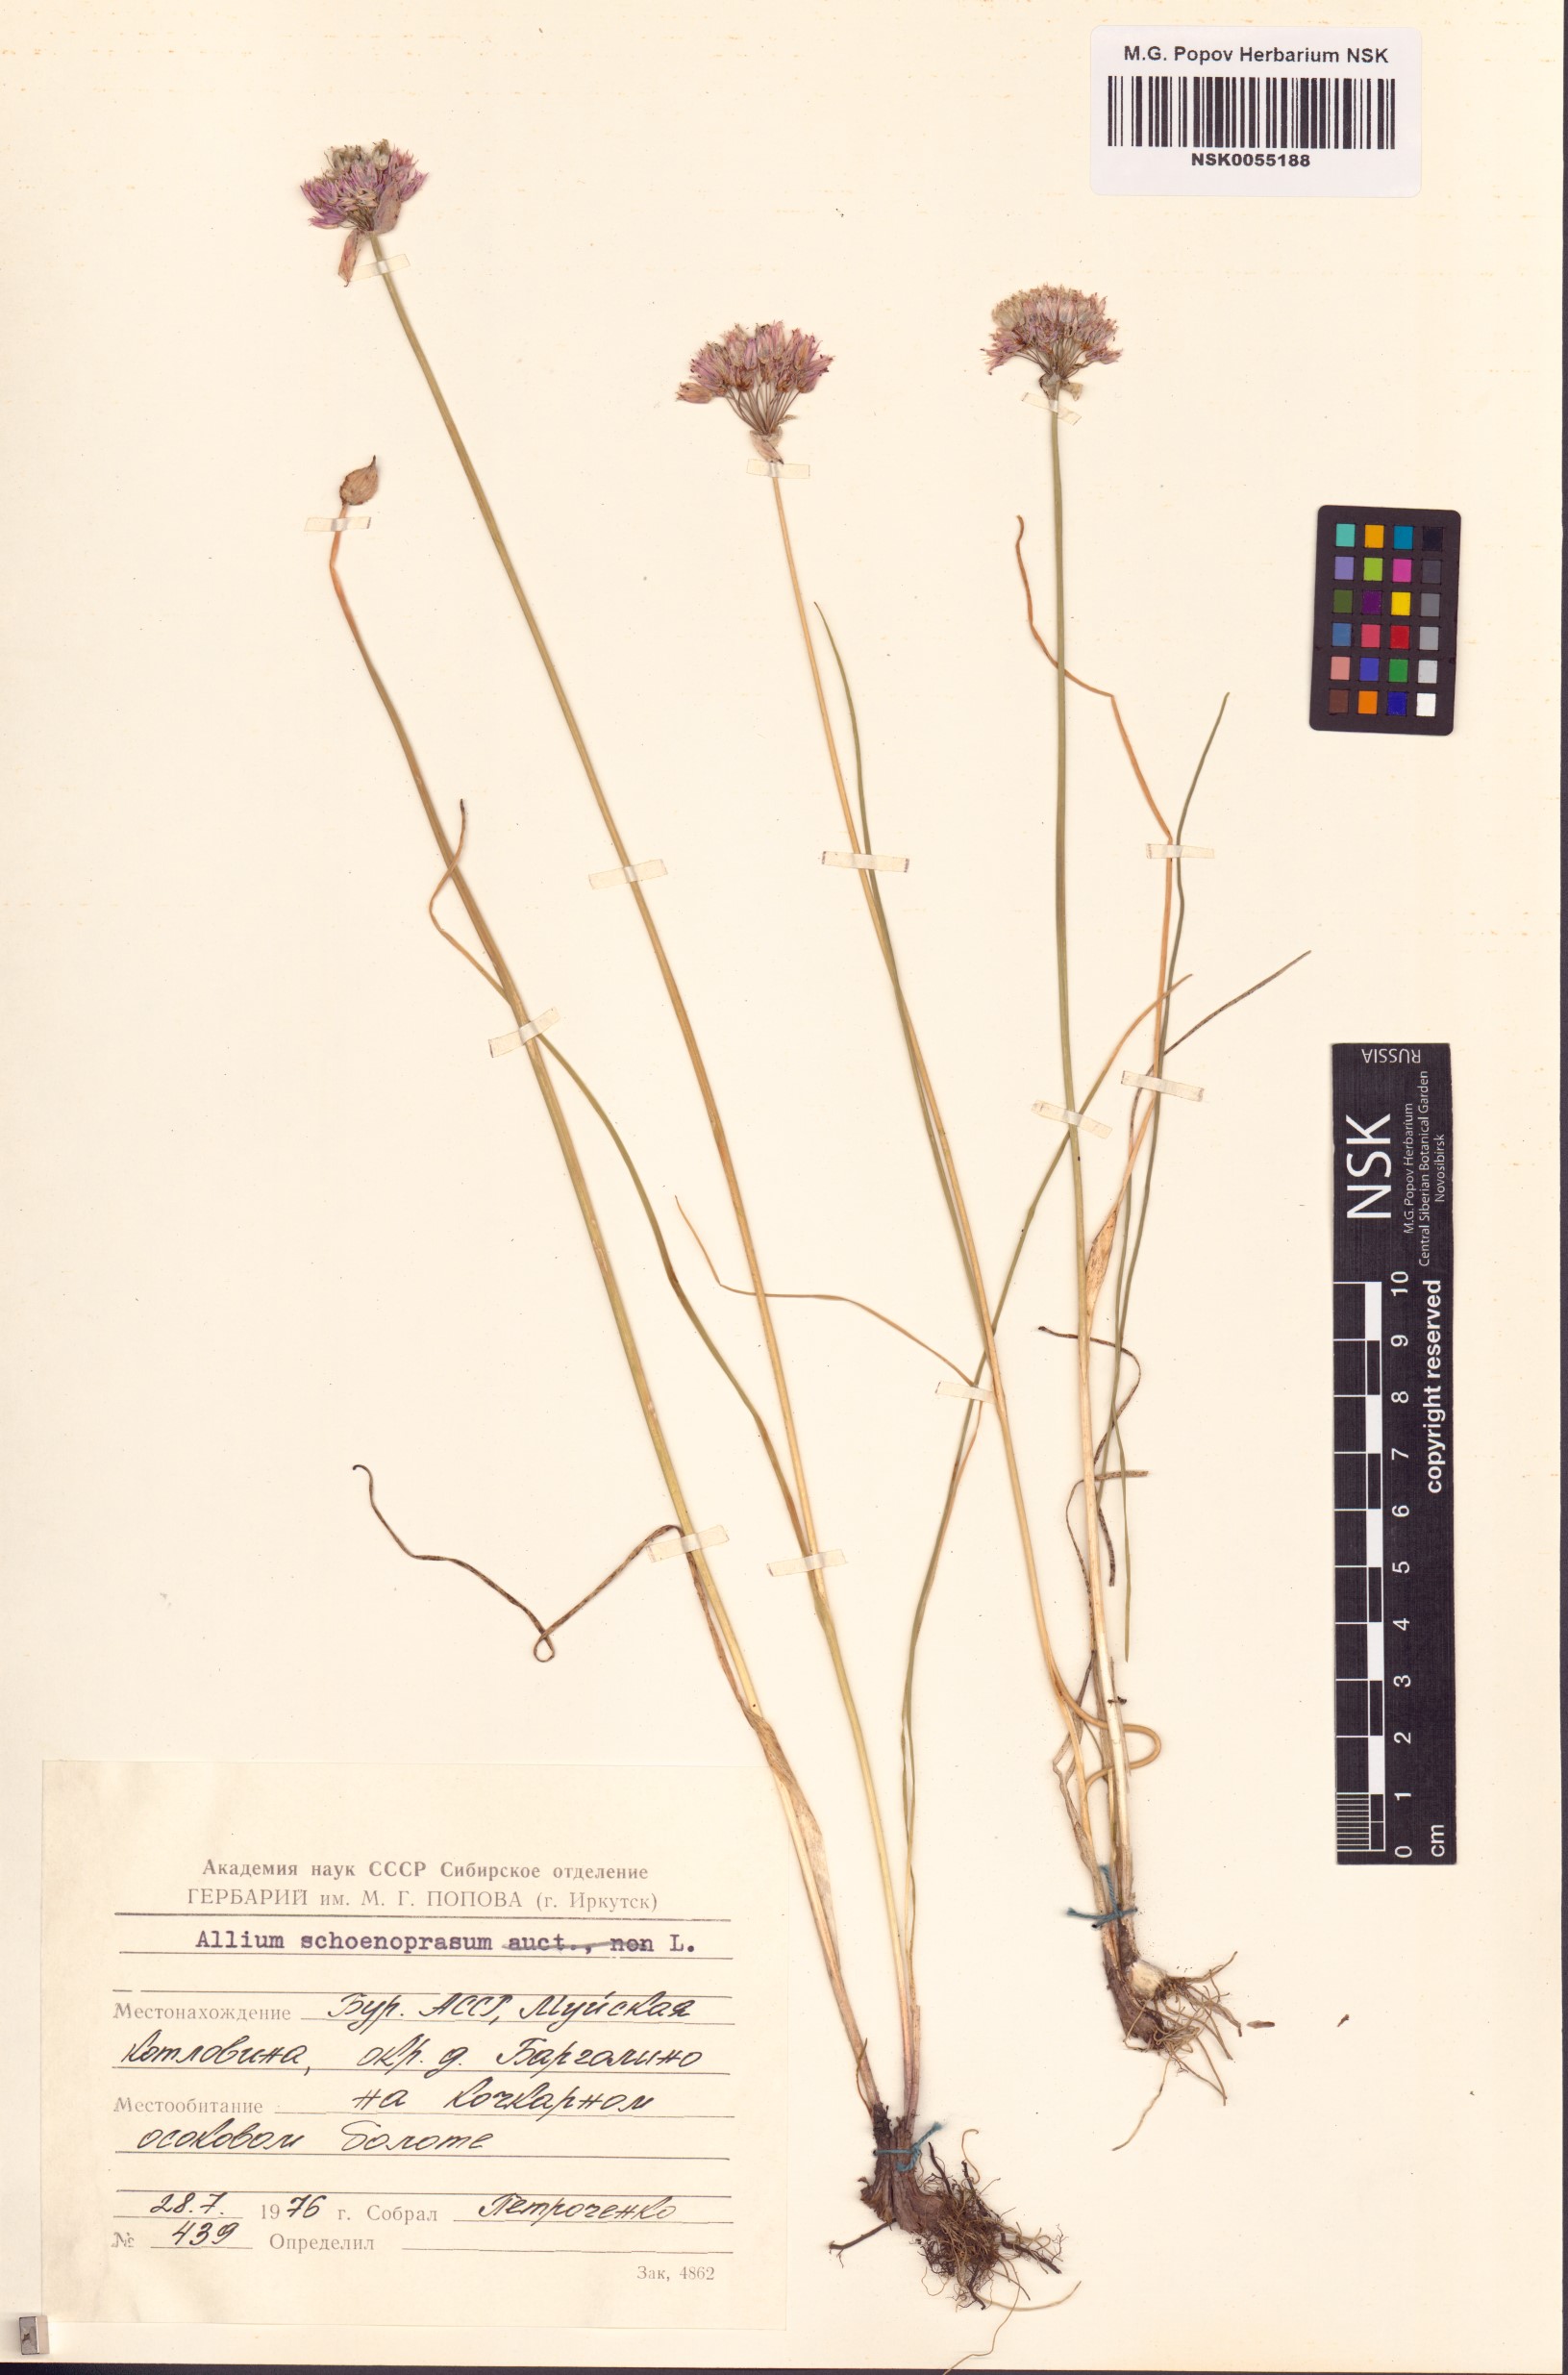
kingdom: Plantae
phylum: Tracheophyta
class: Liliopsida
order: Asparagales
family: Amaryllidaceae
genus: Allium
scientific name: Allium schoenoprasum
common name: Chives
